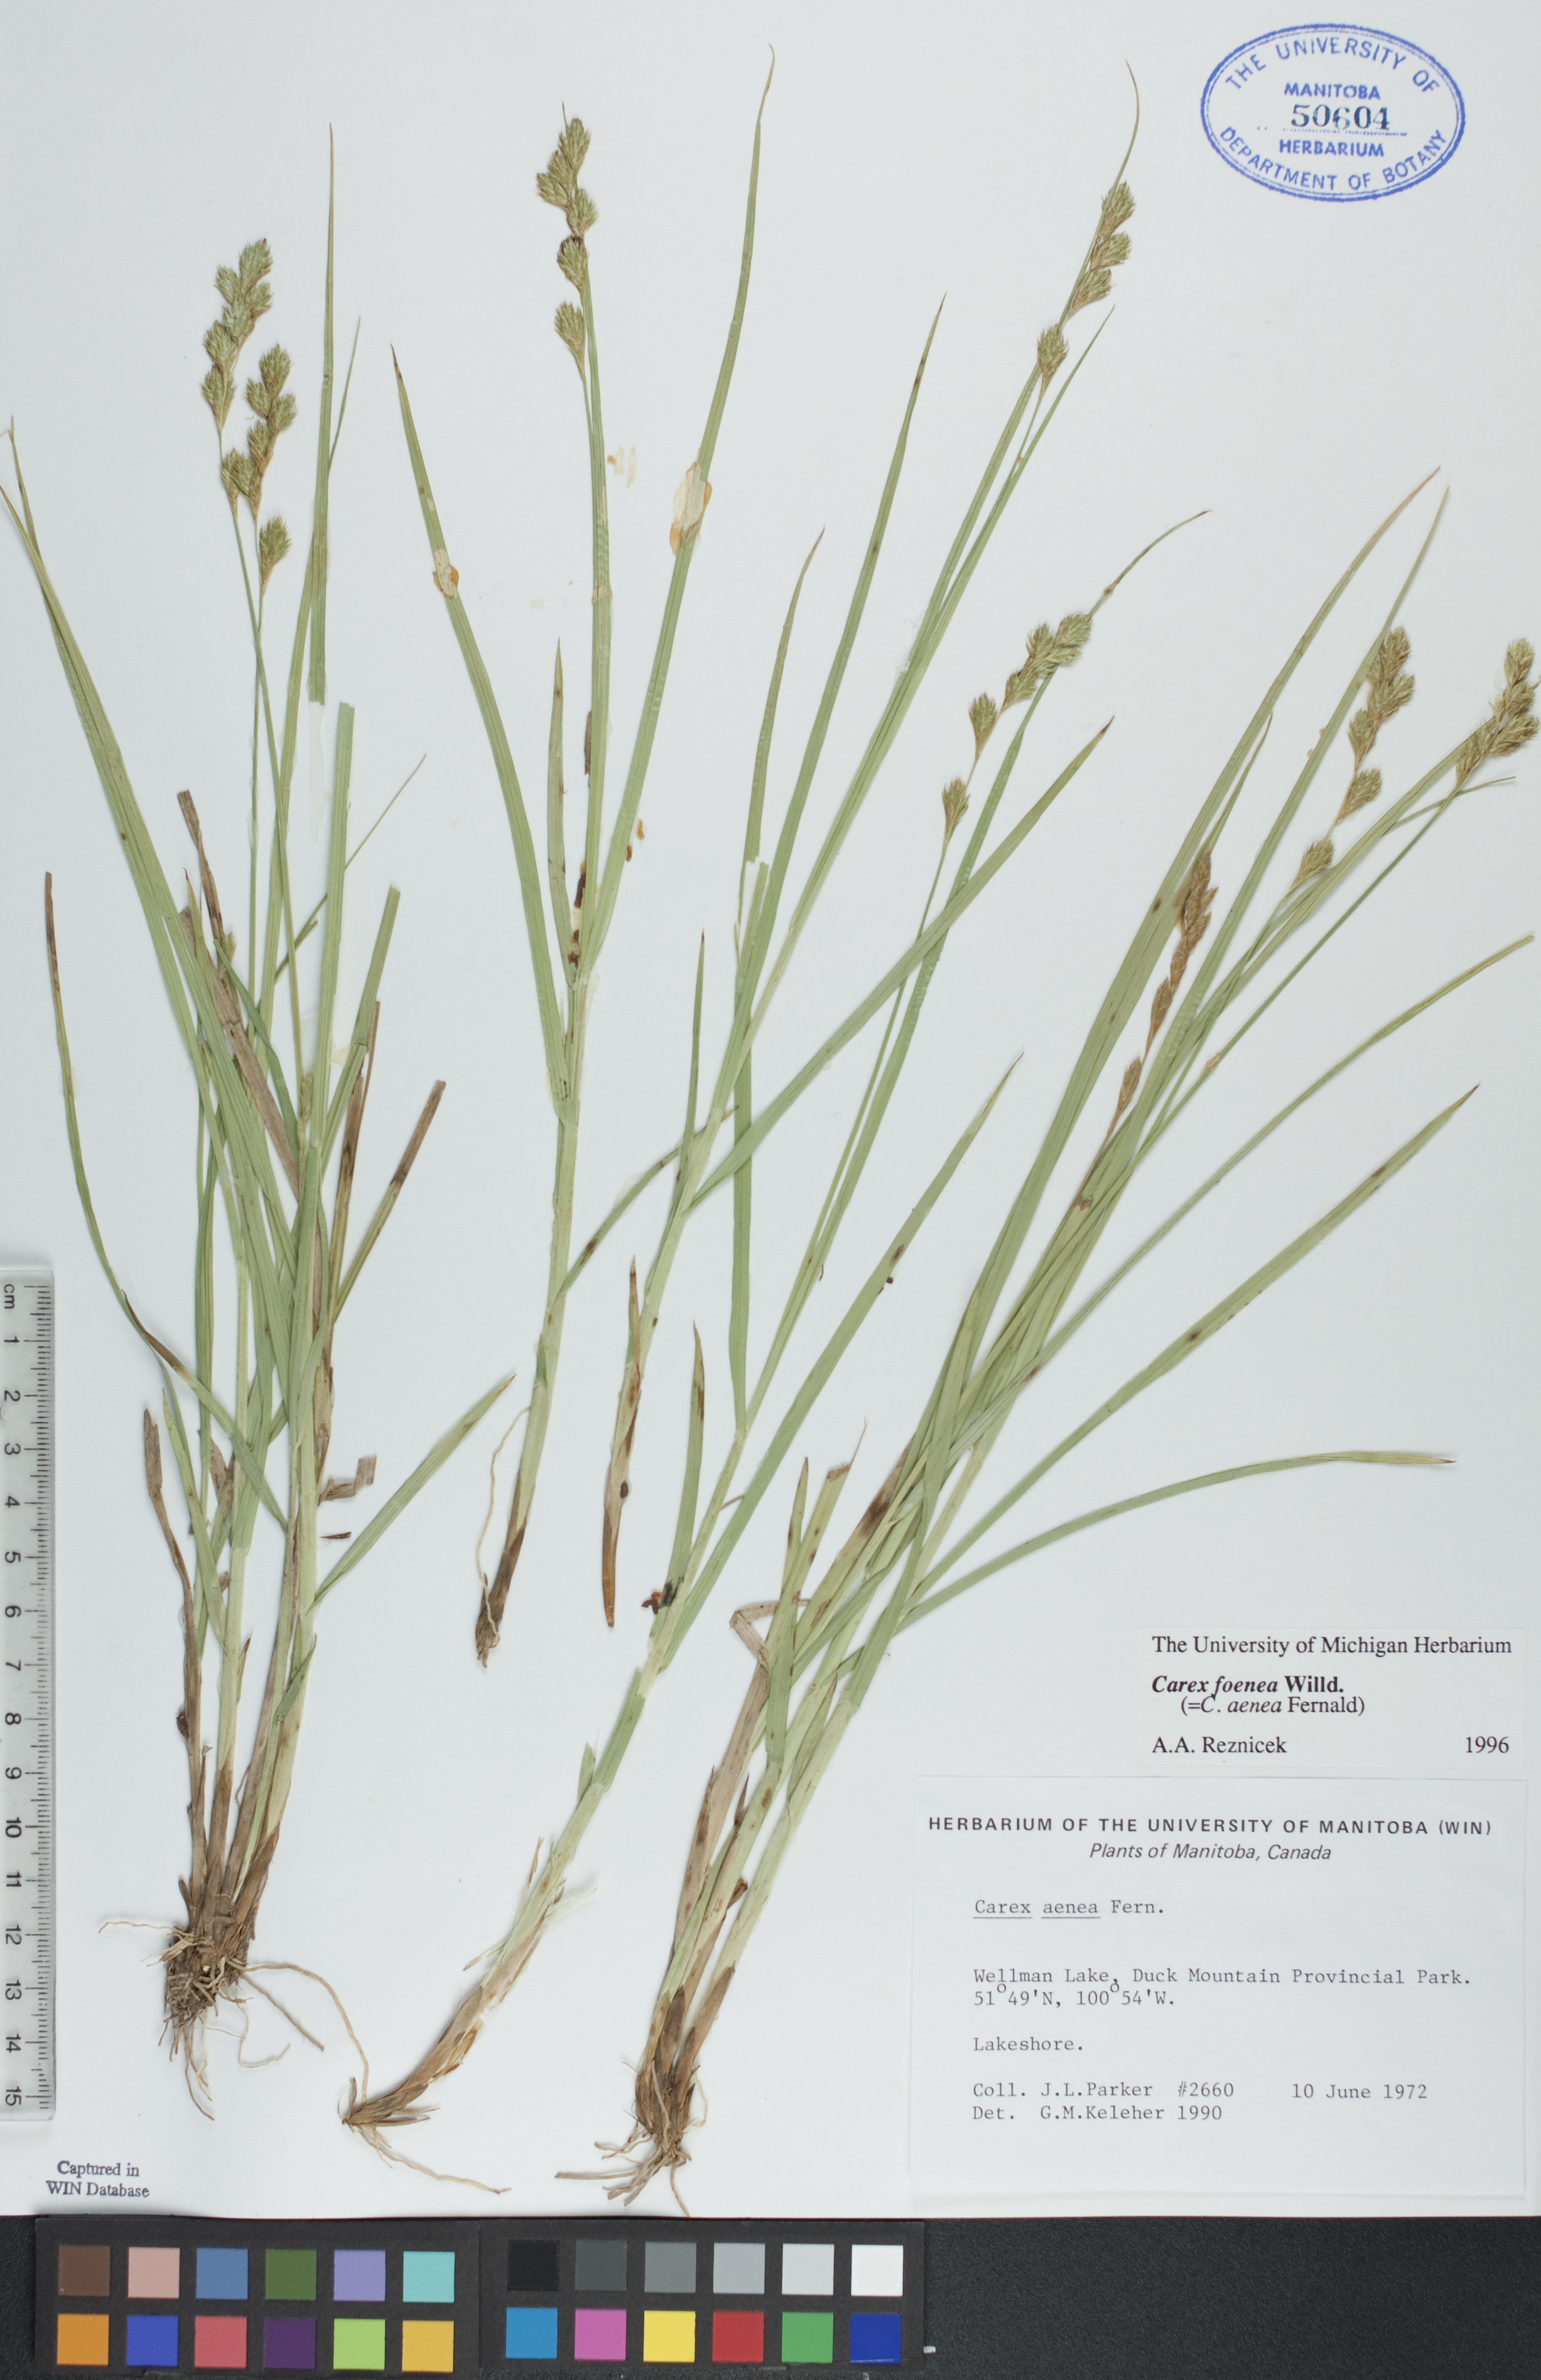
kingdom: Plantae
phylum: Tracheophyta
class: Liliopsida
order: Poales
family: Cyperaceae
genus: Carex
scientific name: Carex foenea
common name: Bronze sedge
